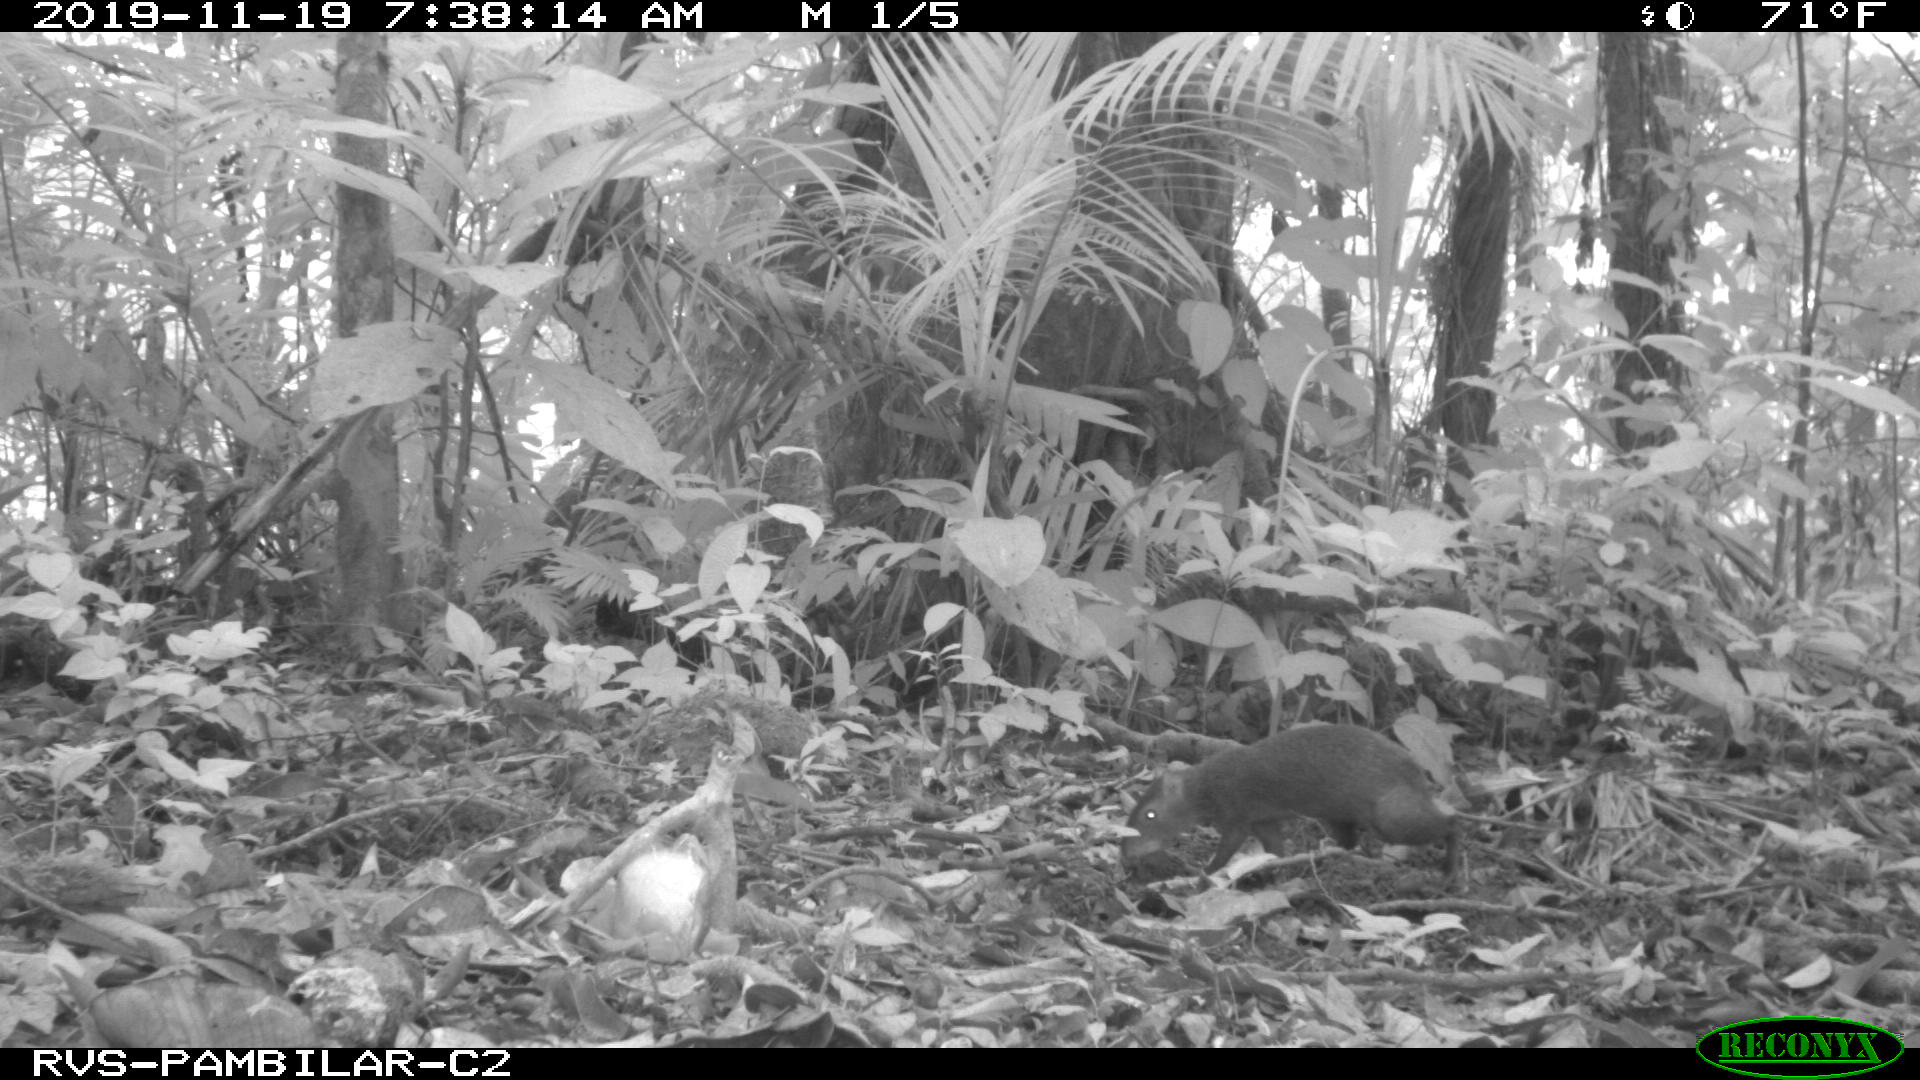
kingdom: Animalia
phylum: Chordata
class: Mammalia
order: Rodentia
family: Dasyproctidae
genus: Dasyprocta
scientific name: Dasyprocta punctata
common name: Central american agouti
